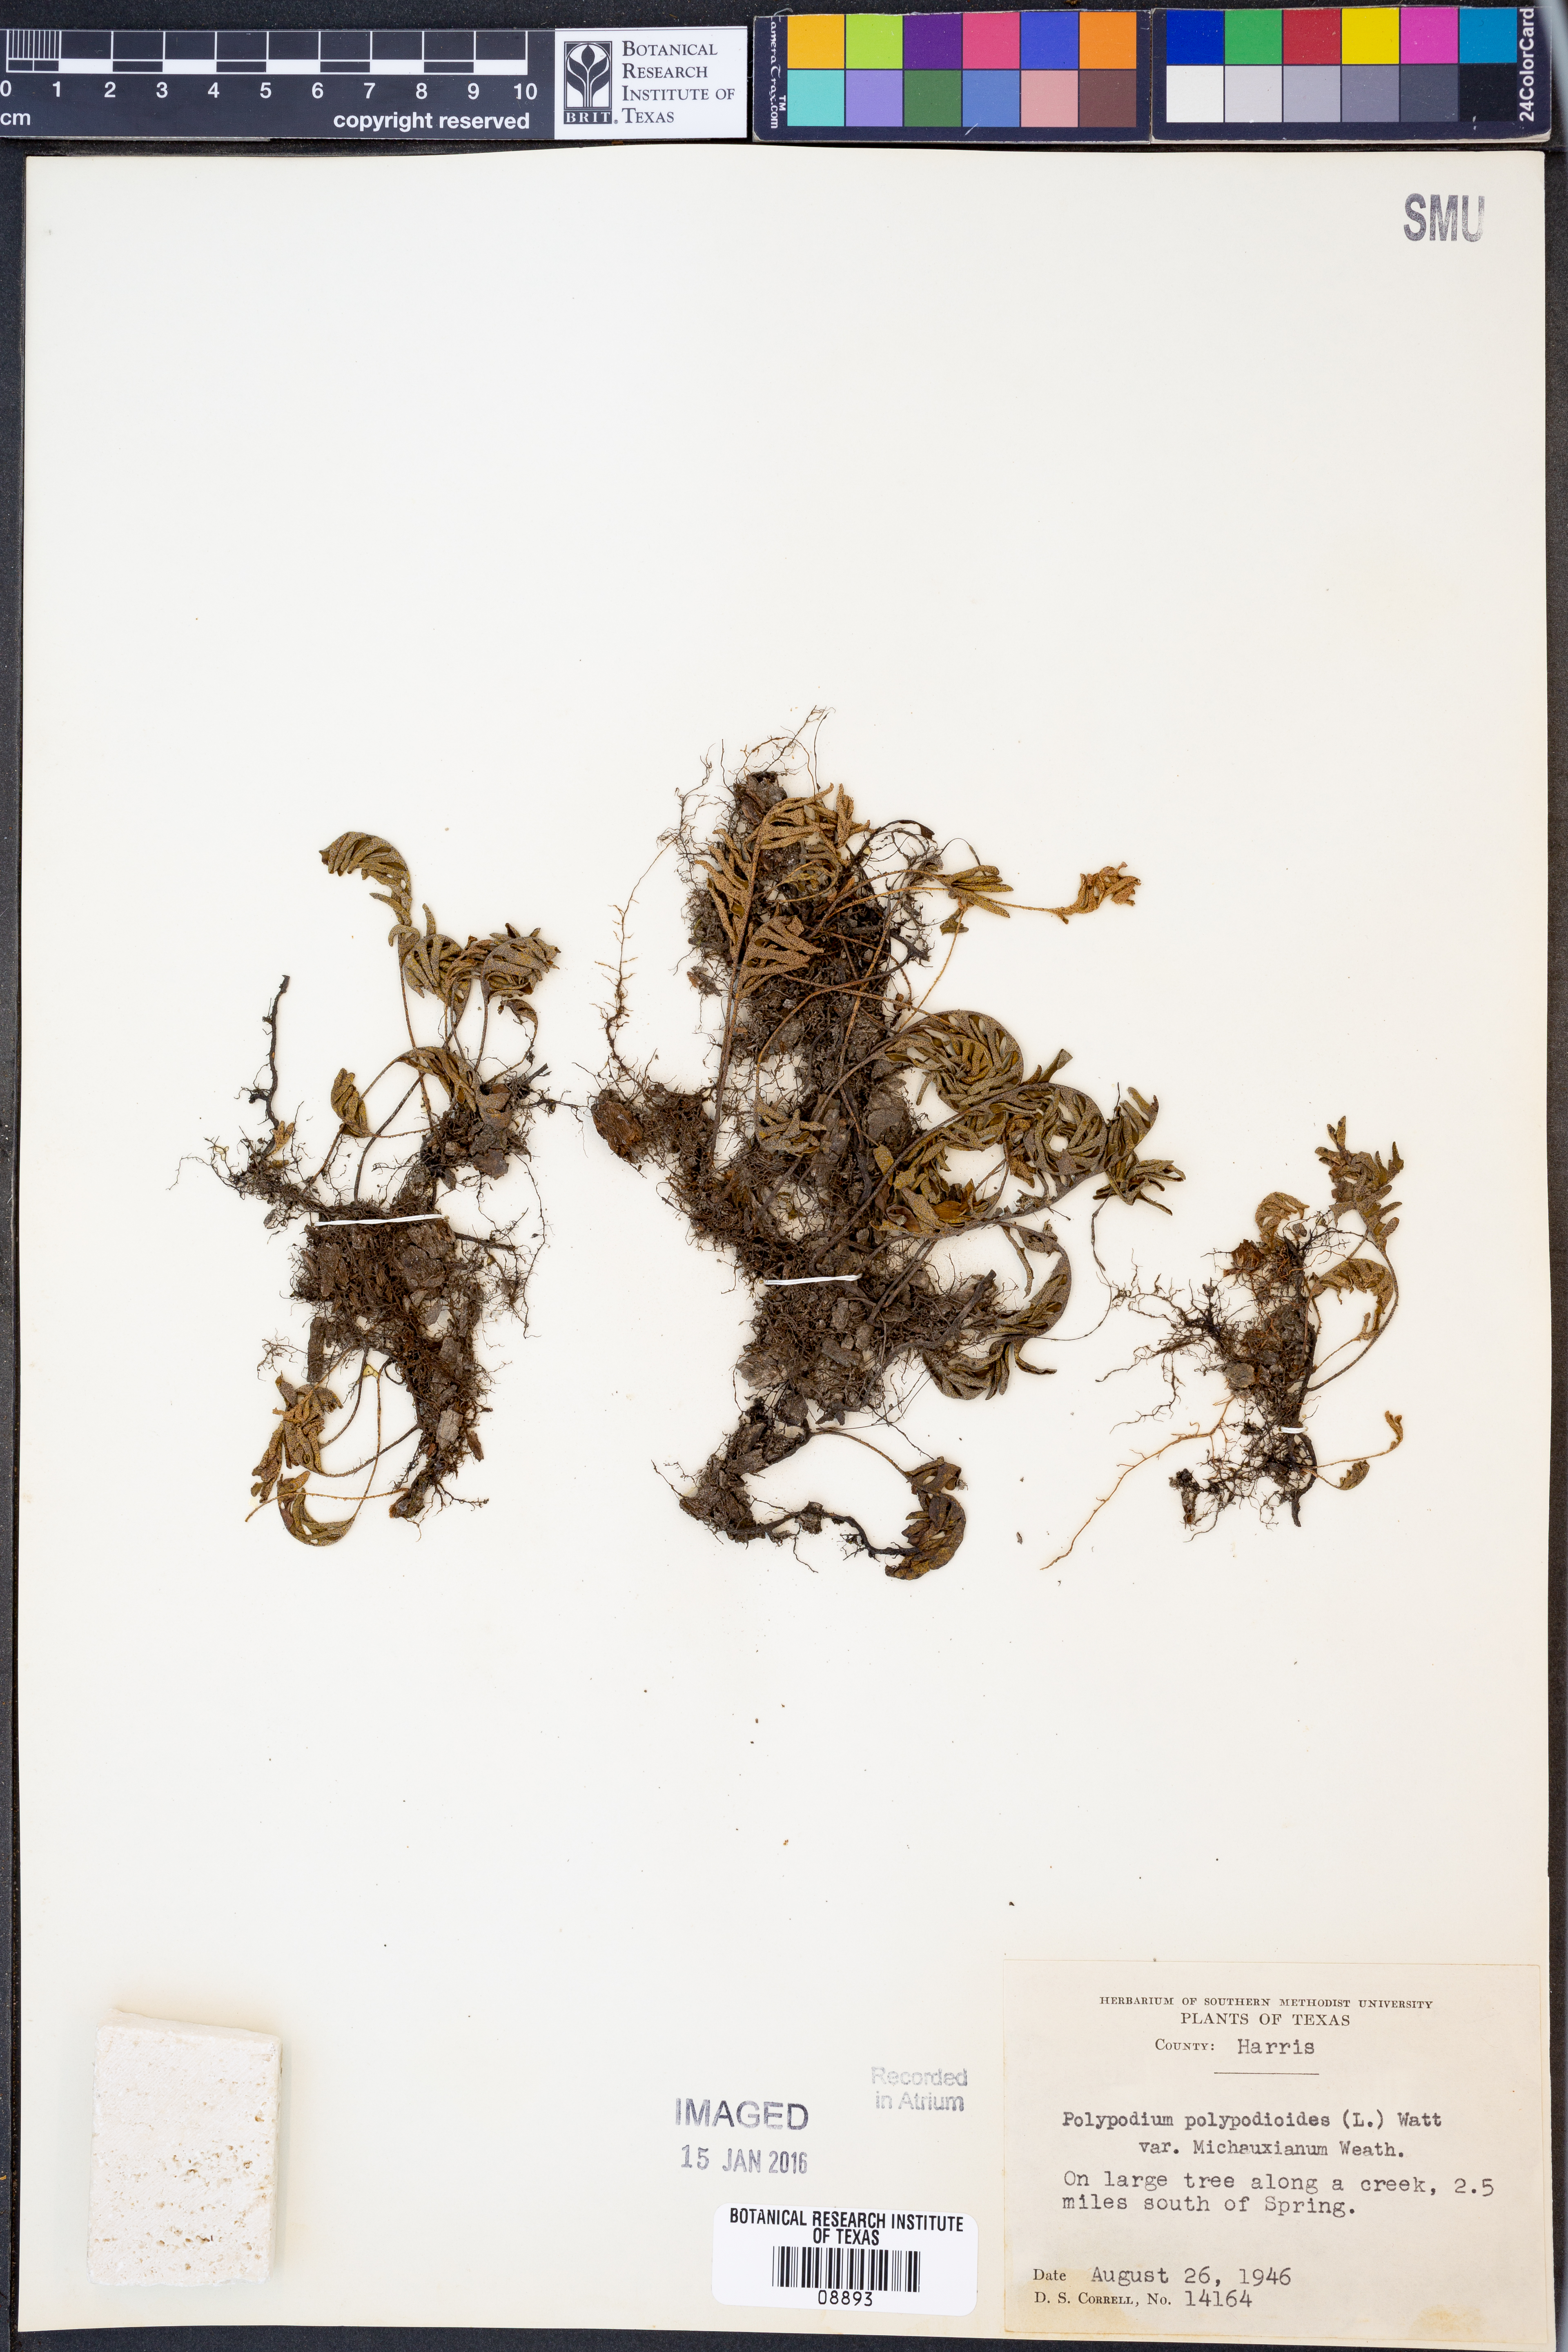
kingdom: Plantae
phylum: Tracheophyta
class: Polypodiopsida
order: Polypodiales
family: Polypodiaceae
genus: Pleopeltis
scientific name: Pleopeltis michauxiana
